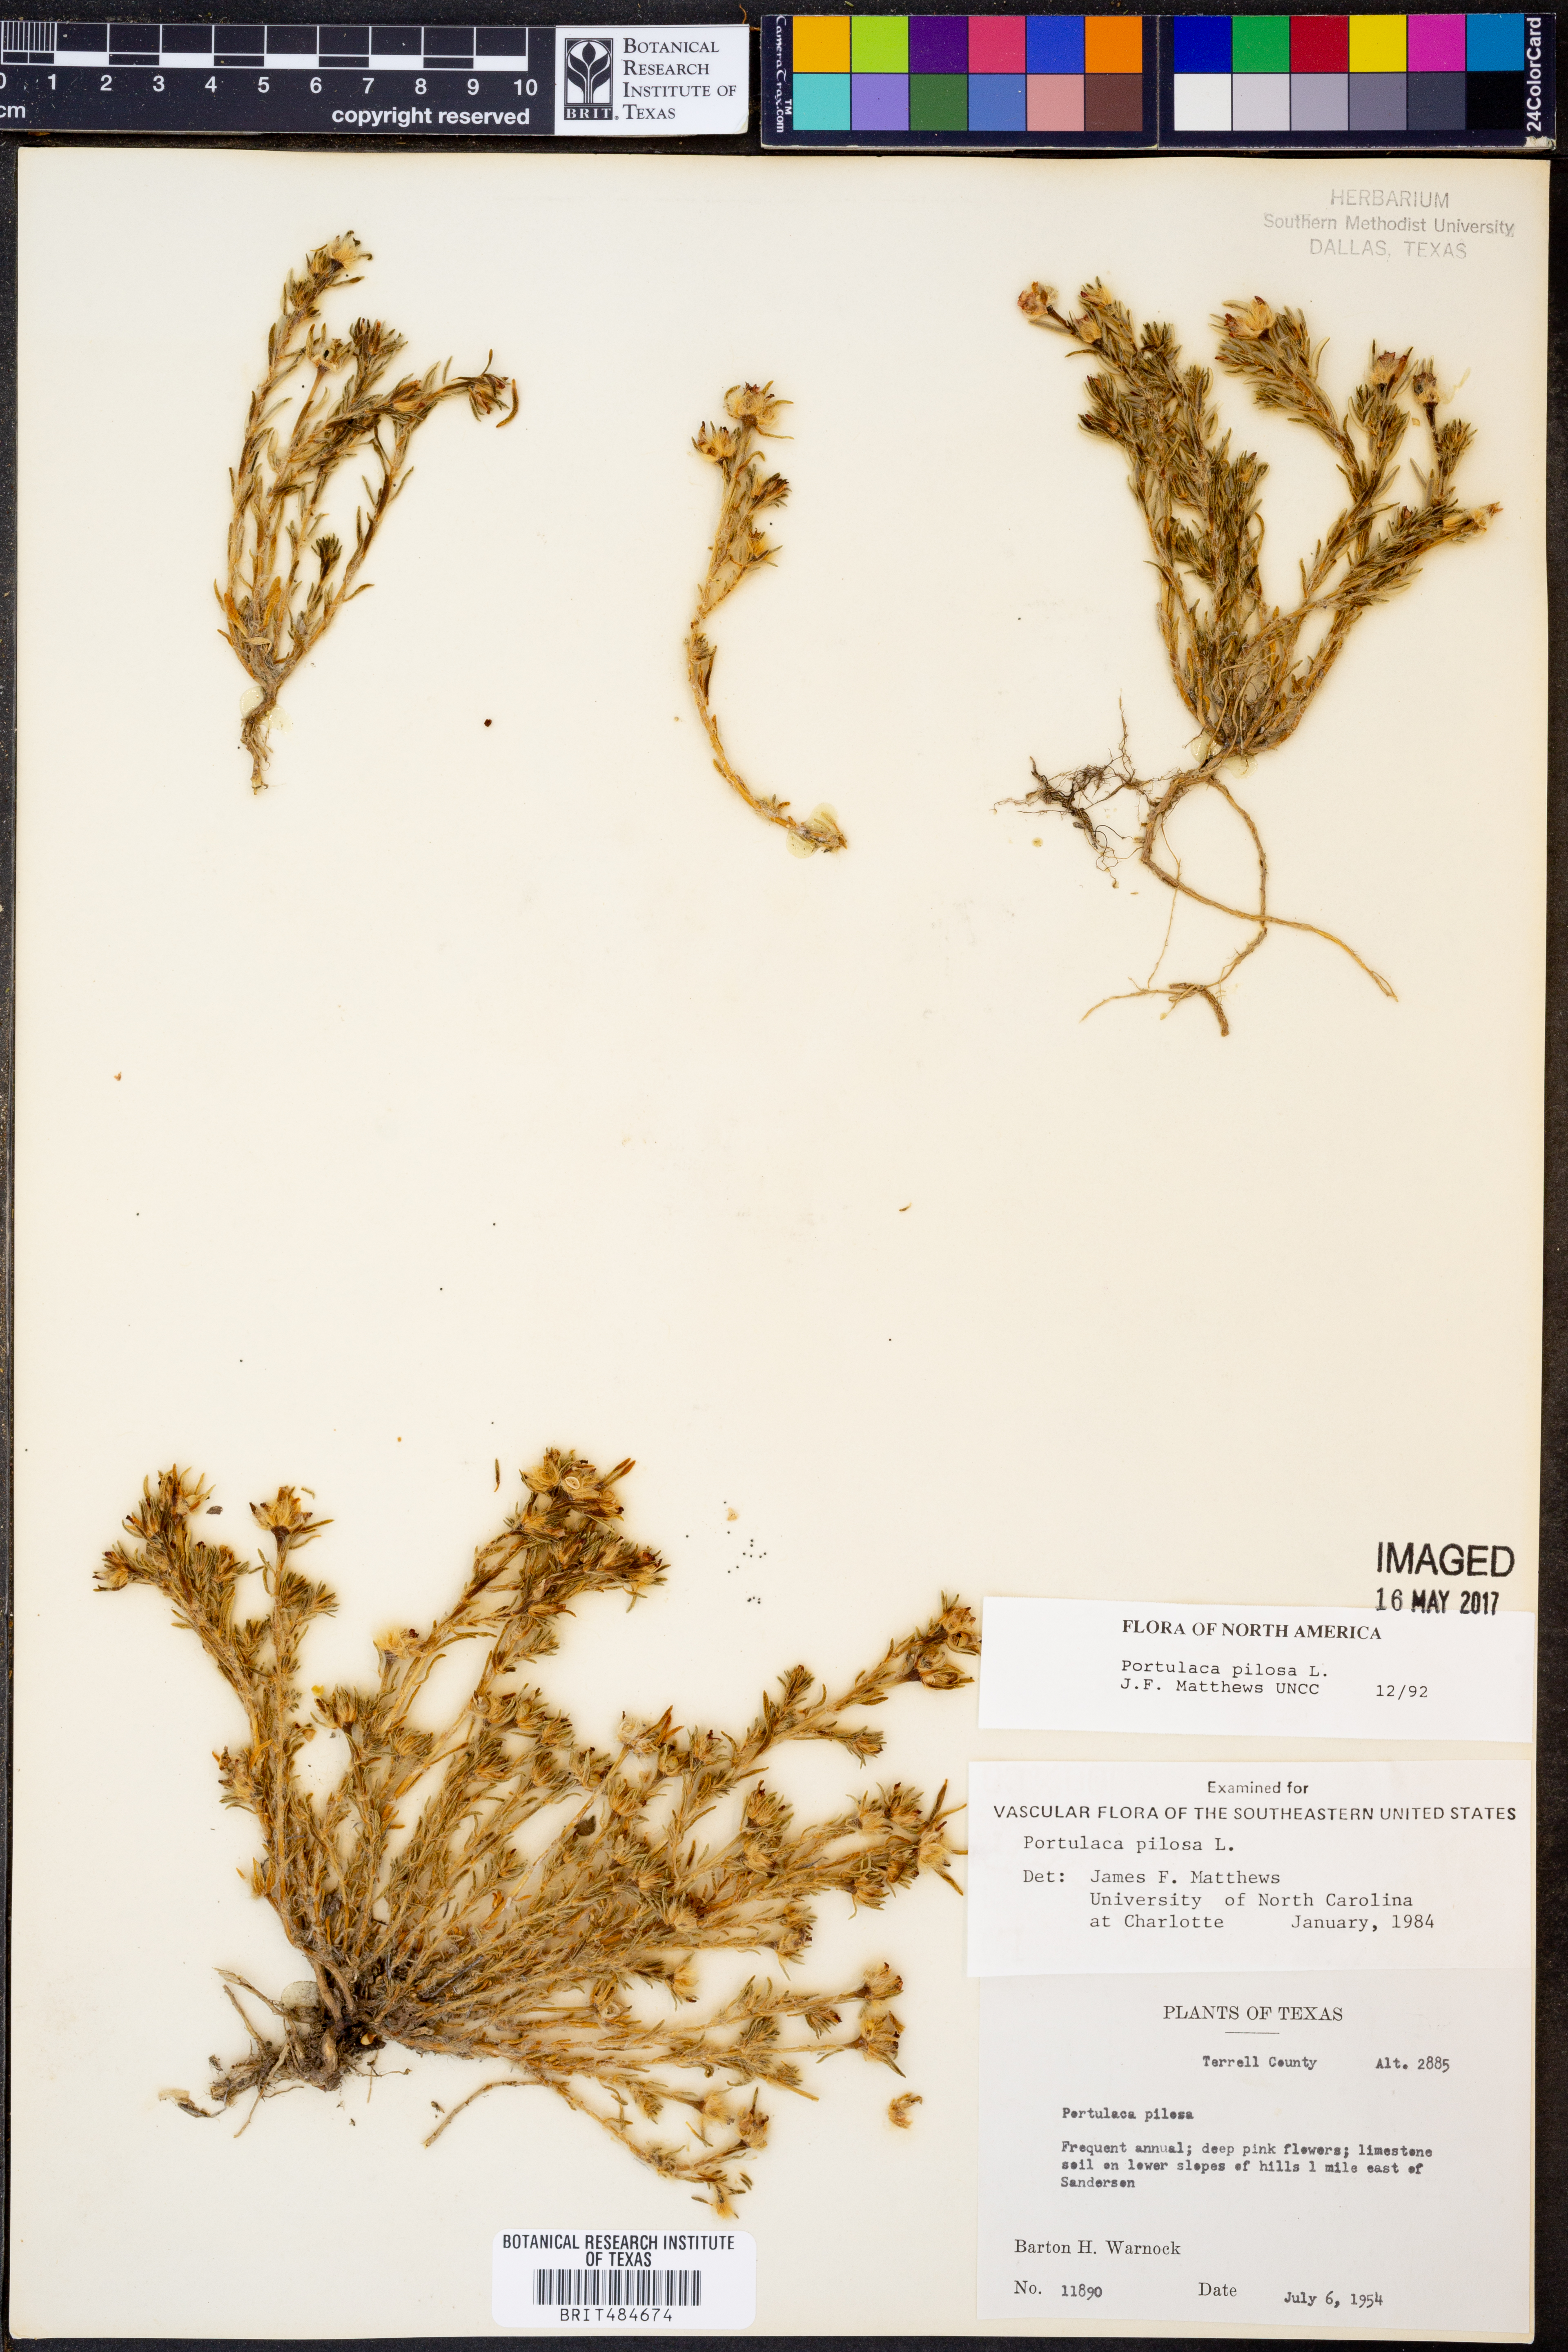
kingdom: Plantae
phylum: Tracheophyta
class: Magnoliopsida
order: Caryophyllales
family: Portulacaceae
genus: Portulaca
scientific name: Portulaca pilosa
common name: Kiss me quick
